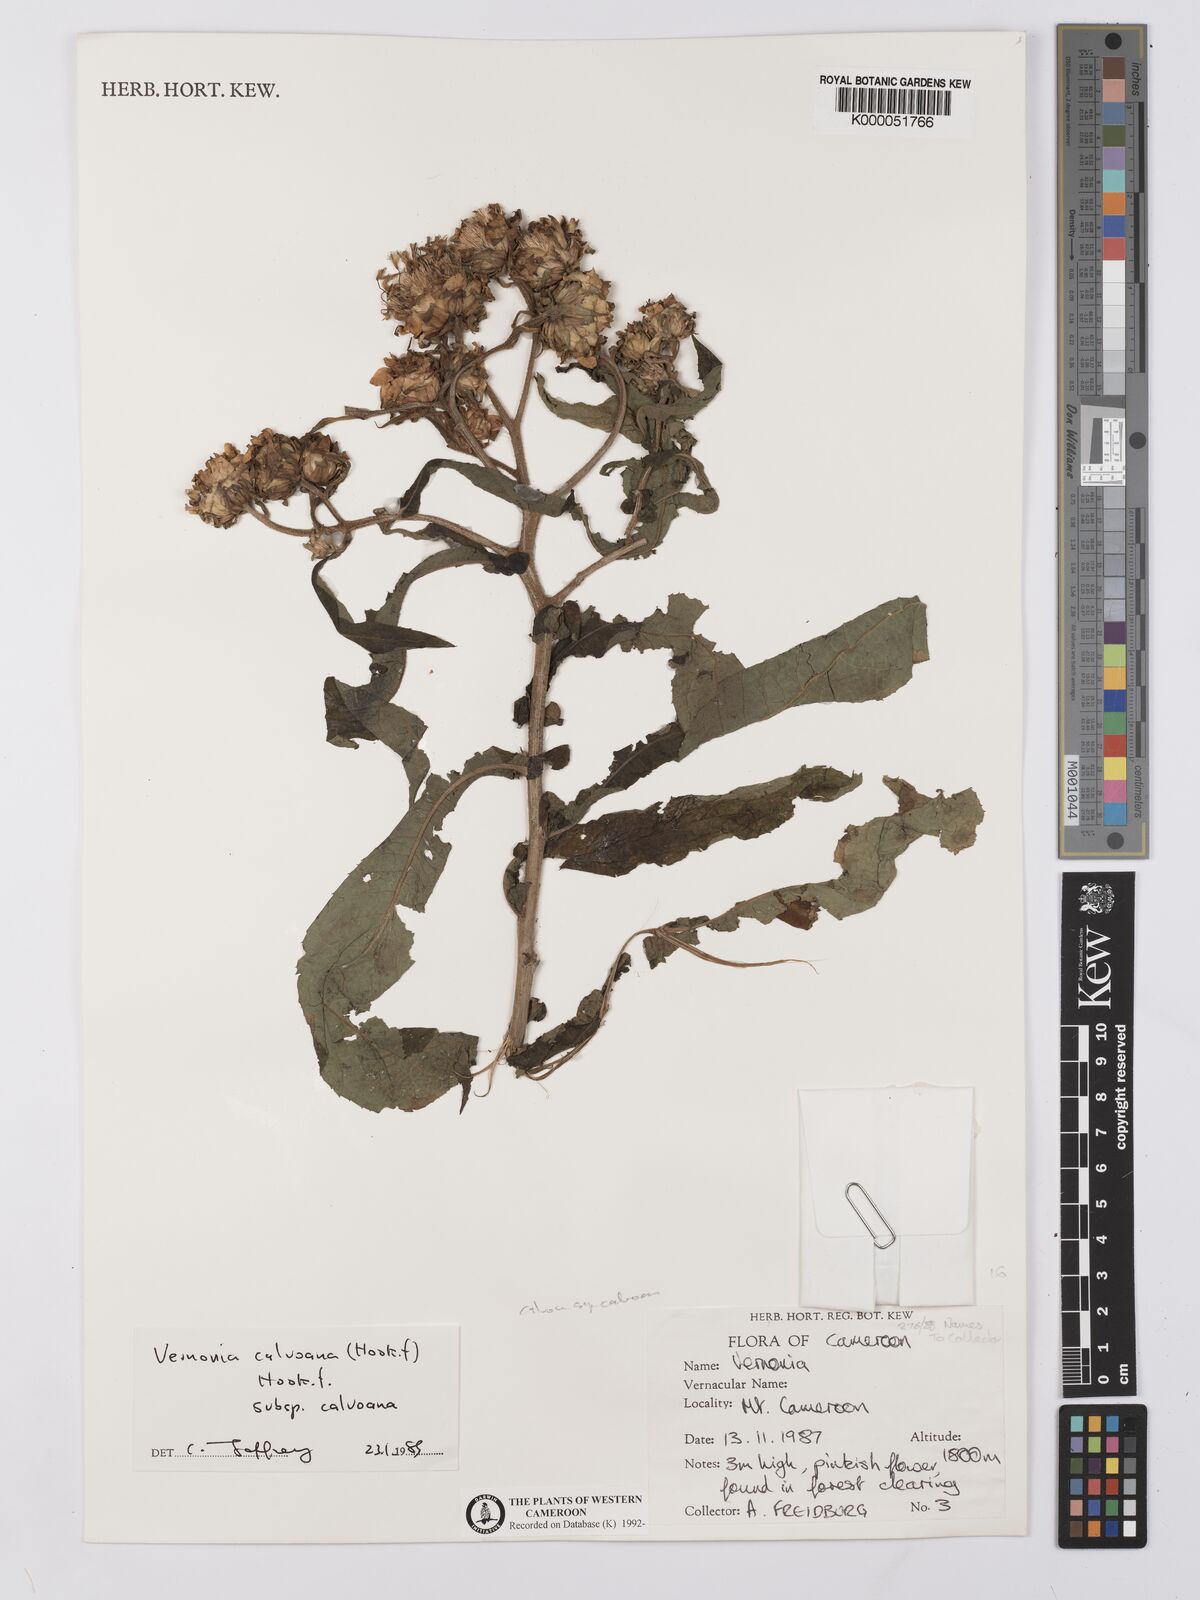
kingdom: Plantae
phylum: Tracheophyta
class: Magnoliopsida
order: Asterales
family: Asteraceae
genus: Baccharoides
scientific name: Baccharoides calvoana
